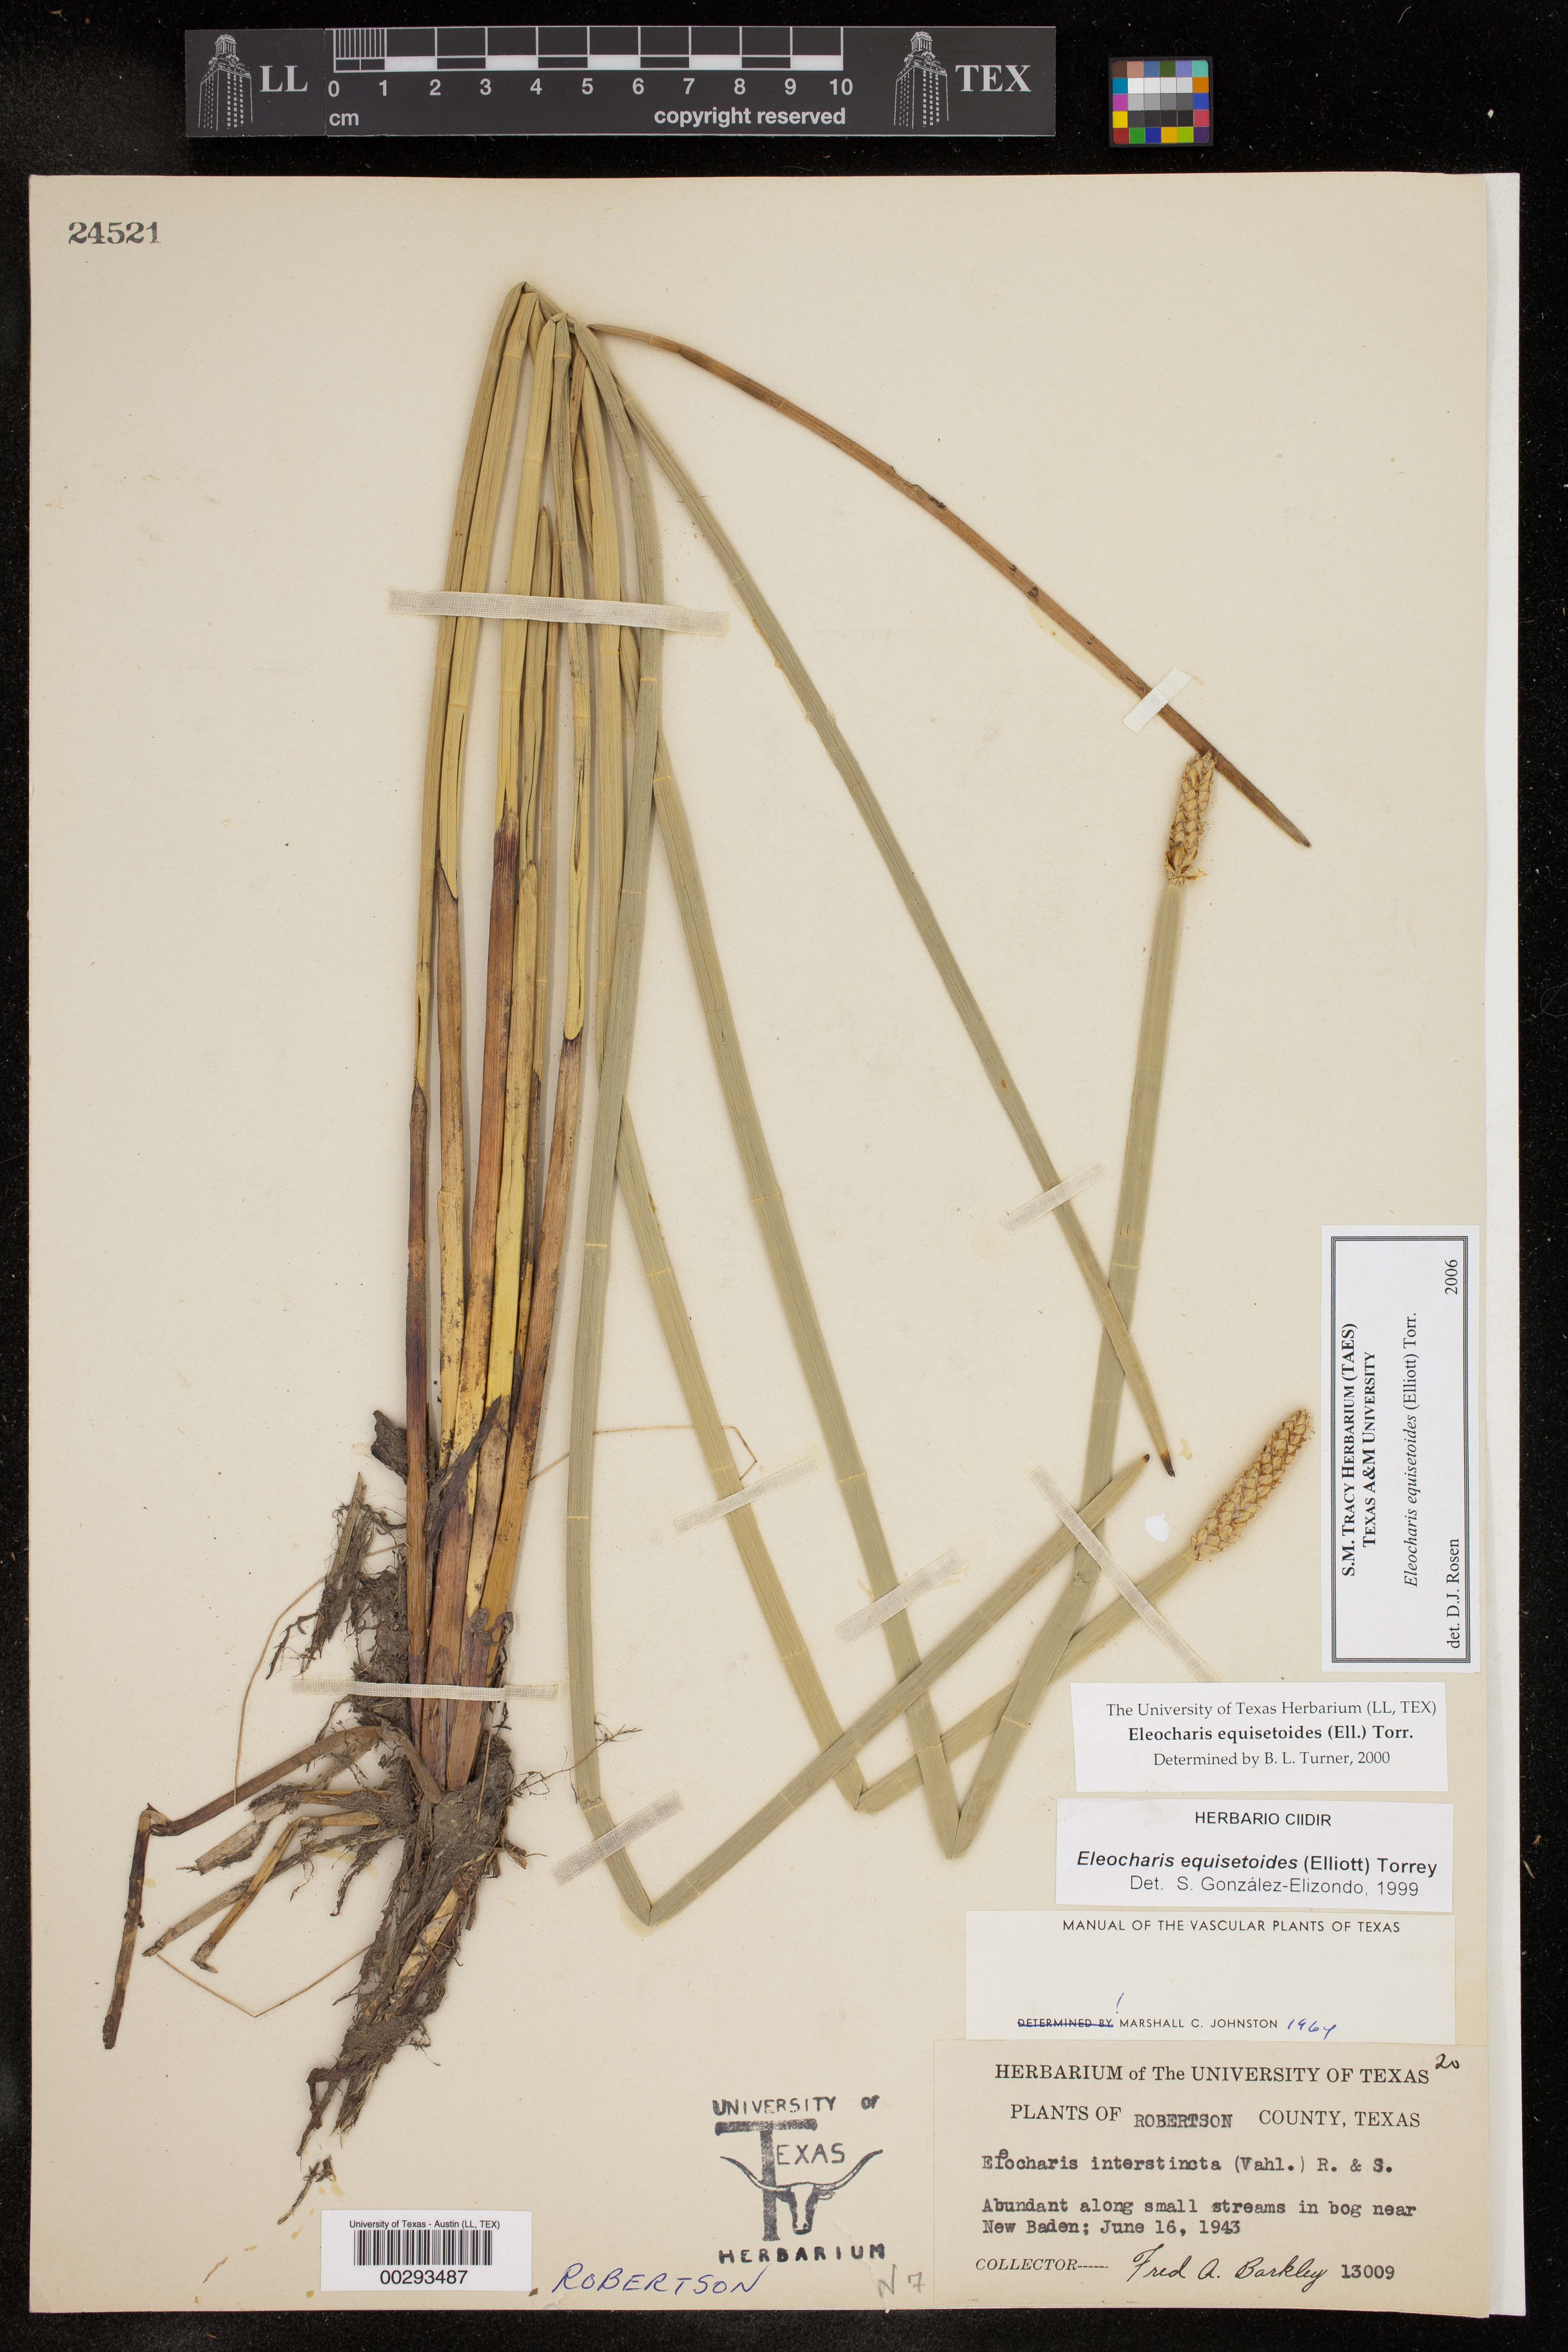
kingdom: Plantae
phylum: Tracheophyta
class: Liliopsida
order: Poales
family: Cyperaceae
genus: Eleocharis
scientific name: Eleocharis equisetoides
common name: Horsetail spike-rush
